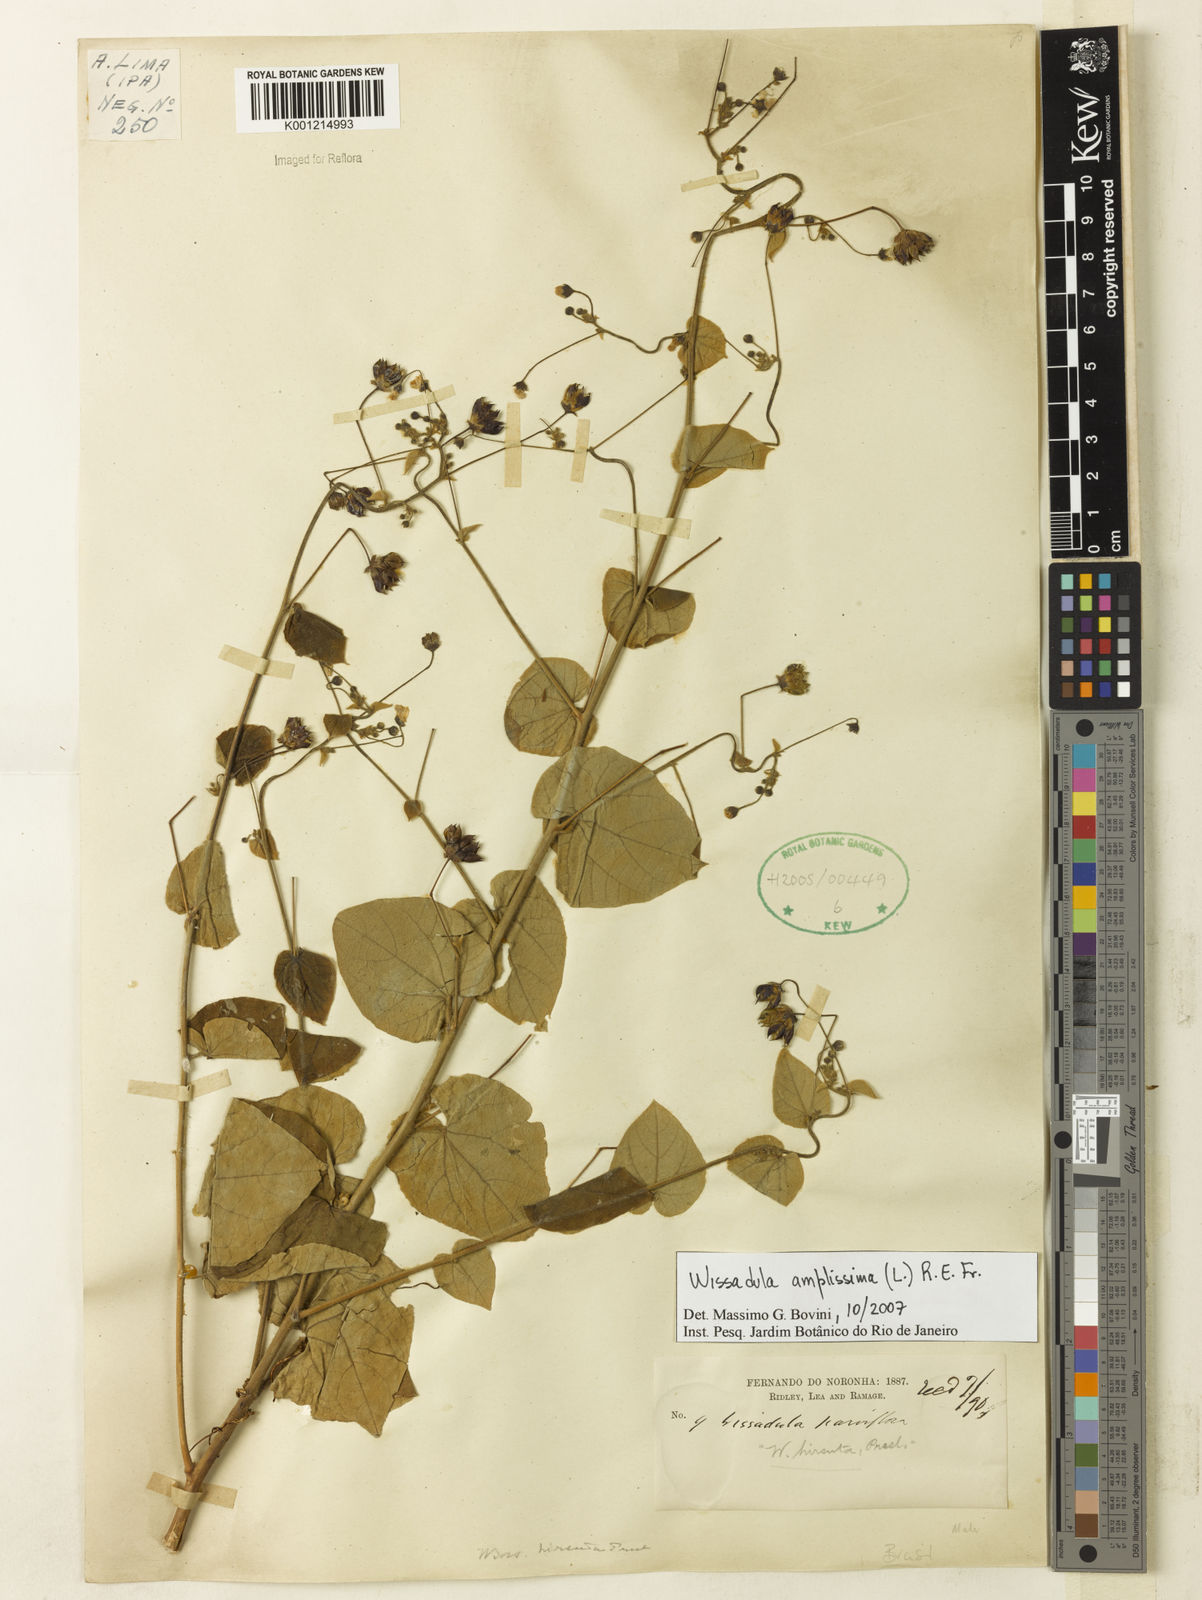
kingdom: Plantae
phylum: Tracheophyta
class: Magnoliopsida
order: Malvales
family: Malvaceae
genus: Wissadula
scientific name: Wissadula amplissima
